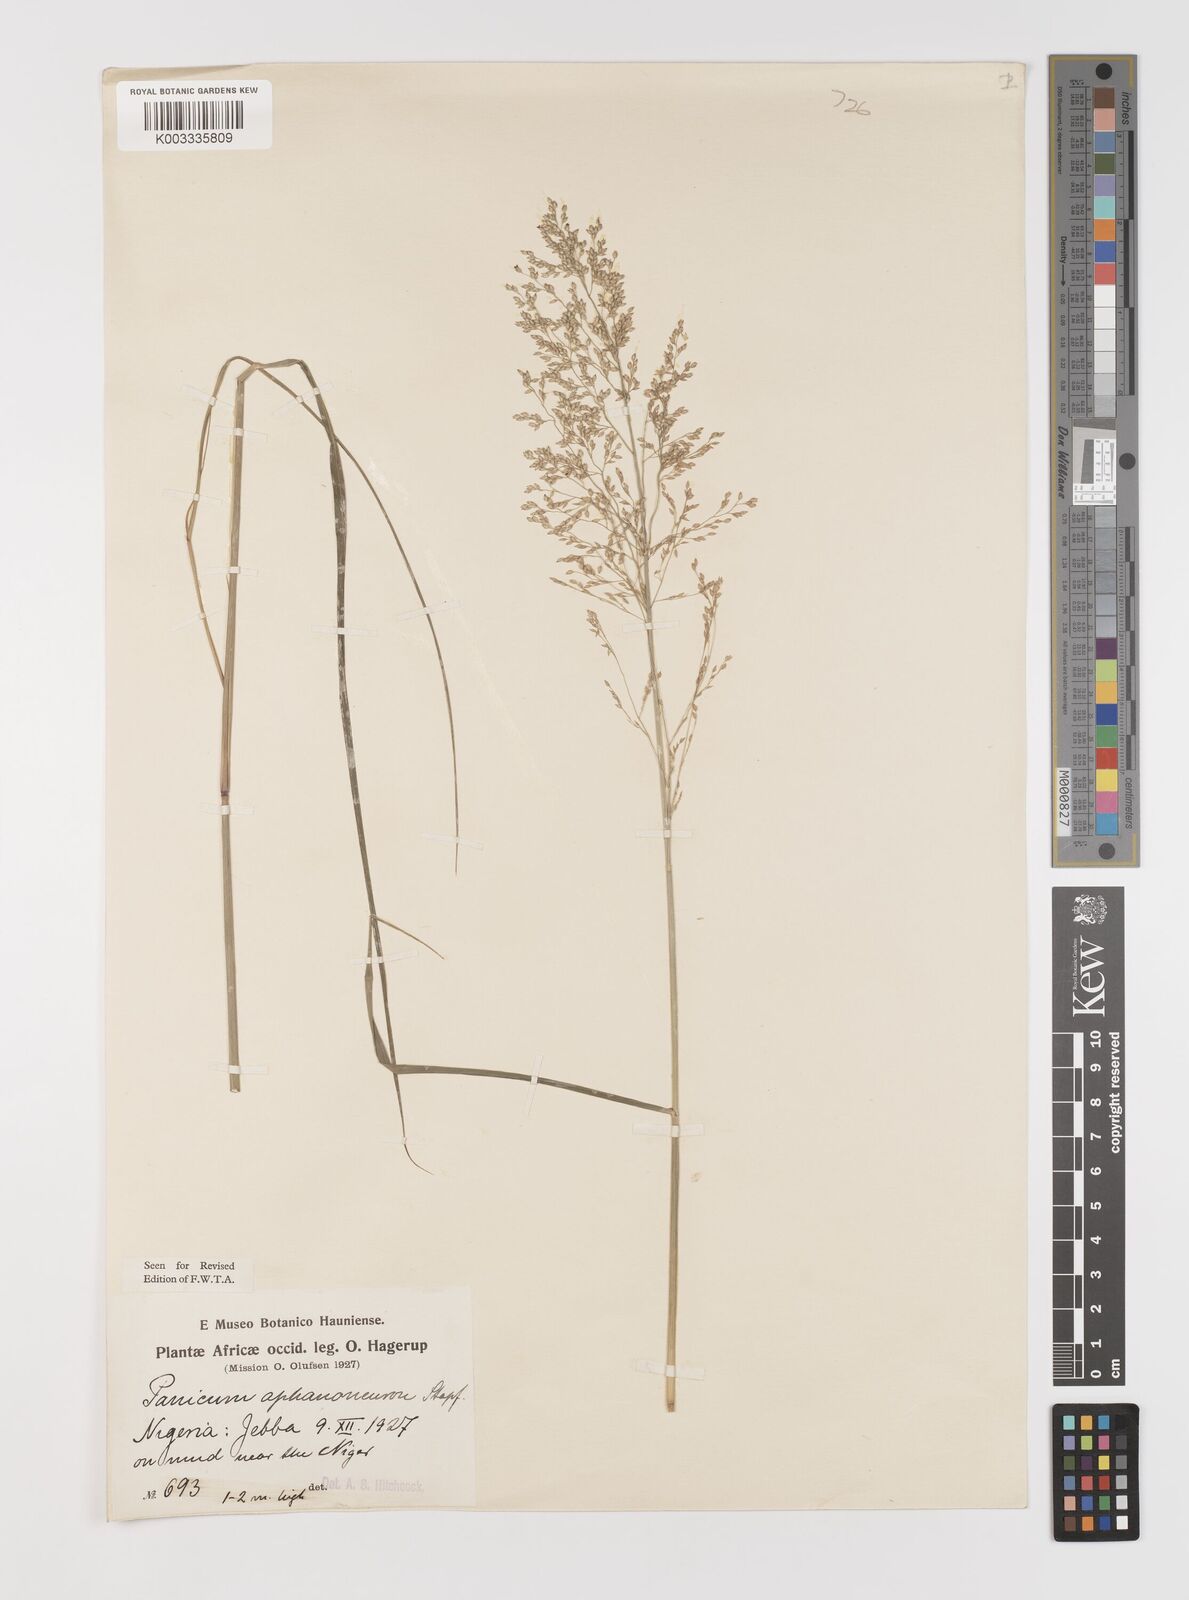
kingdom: Plantae
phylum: Tracheophyta
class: Liliopsida
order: Poales
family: Poaceae
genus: Panicum
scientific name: Panicum fluviicola
